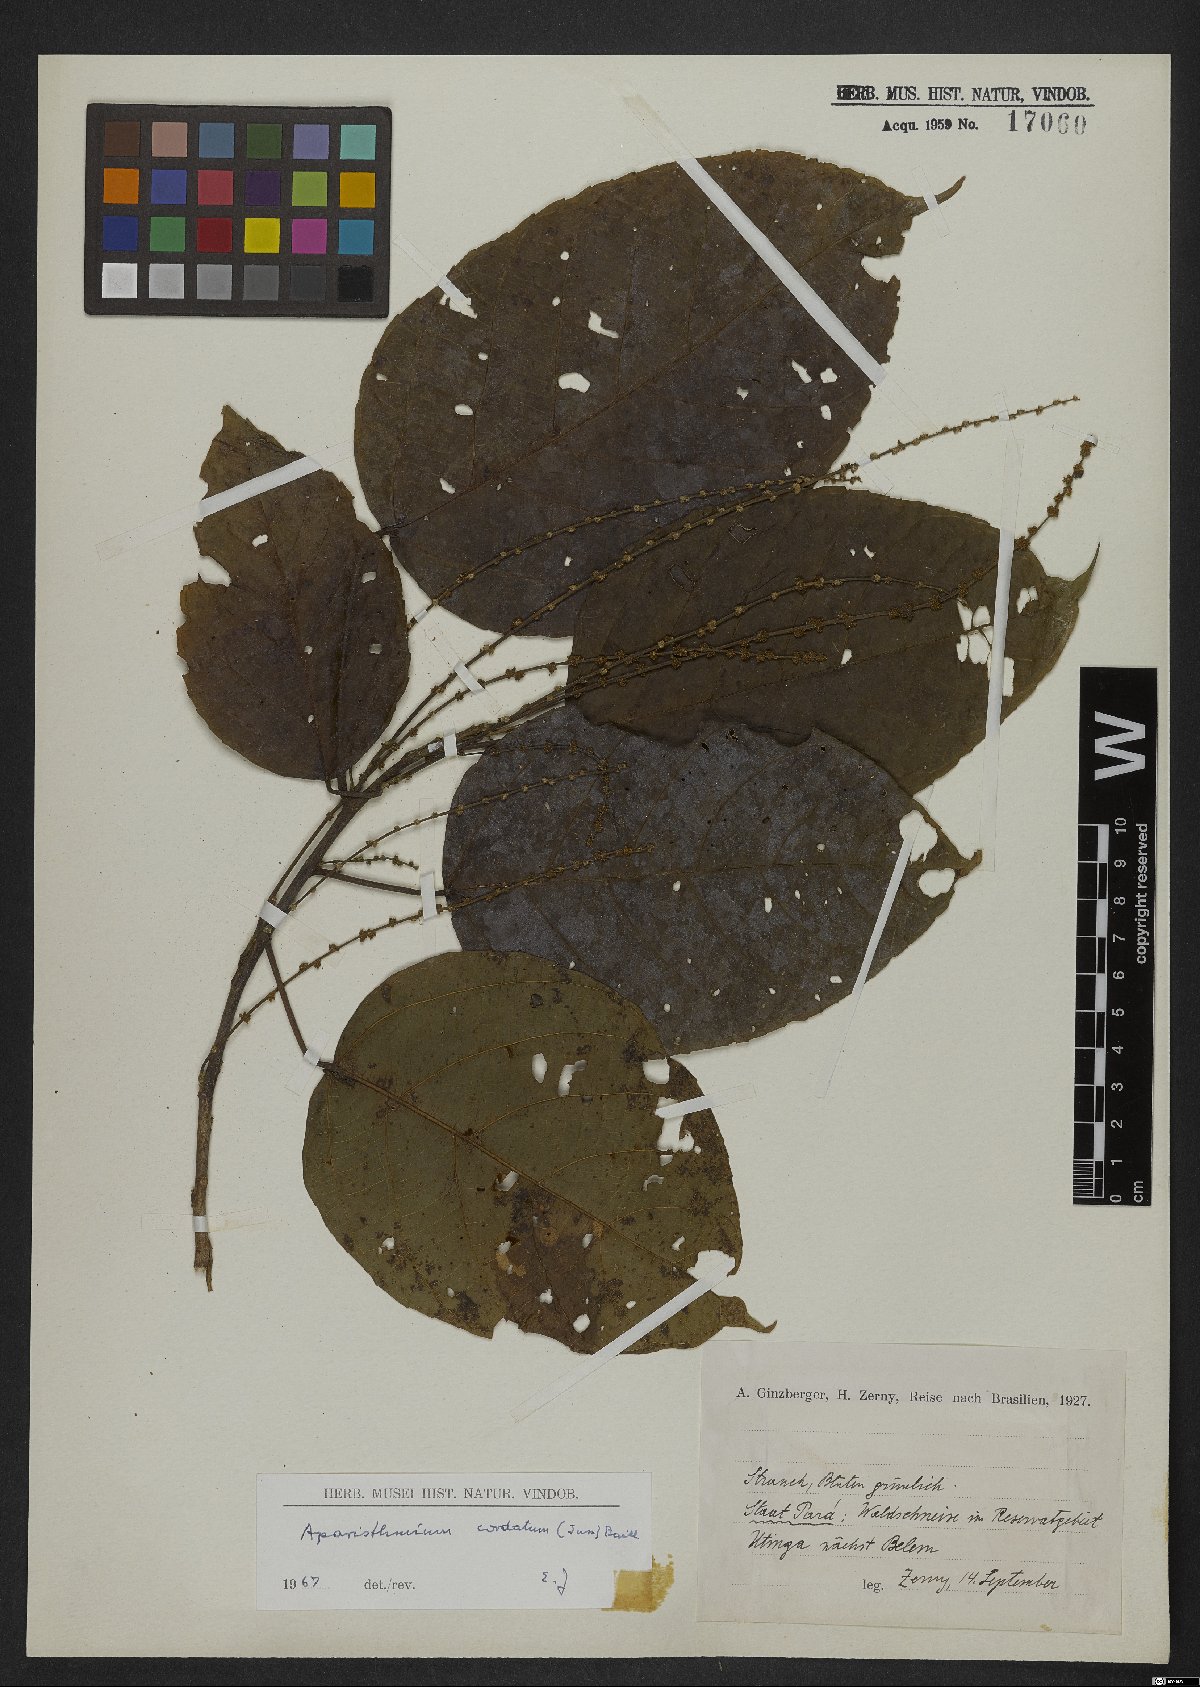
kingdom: Plantae
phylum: Tracheophyta
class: Magnoliopsida
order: Malpighiales
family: Euphorbiaceae
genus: Aparisthmium
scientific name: Aparisthmium cordatum
